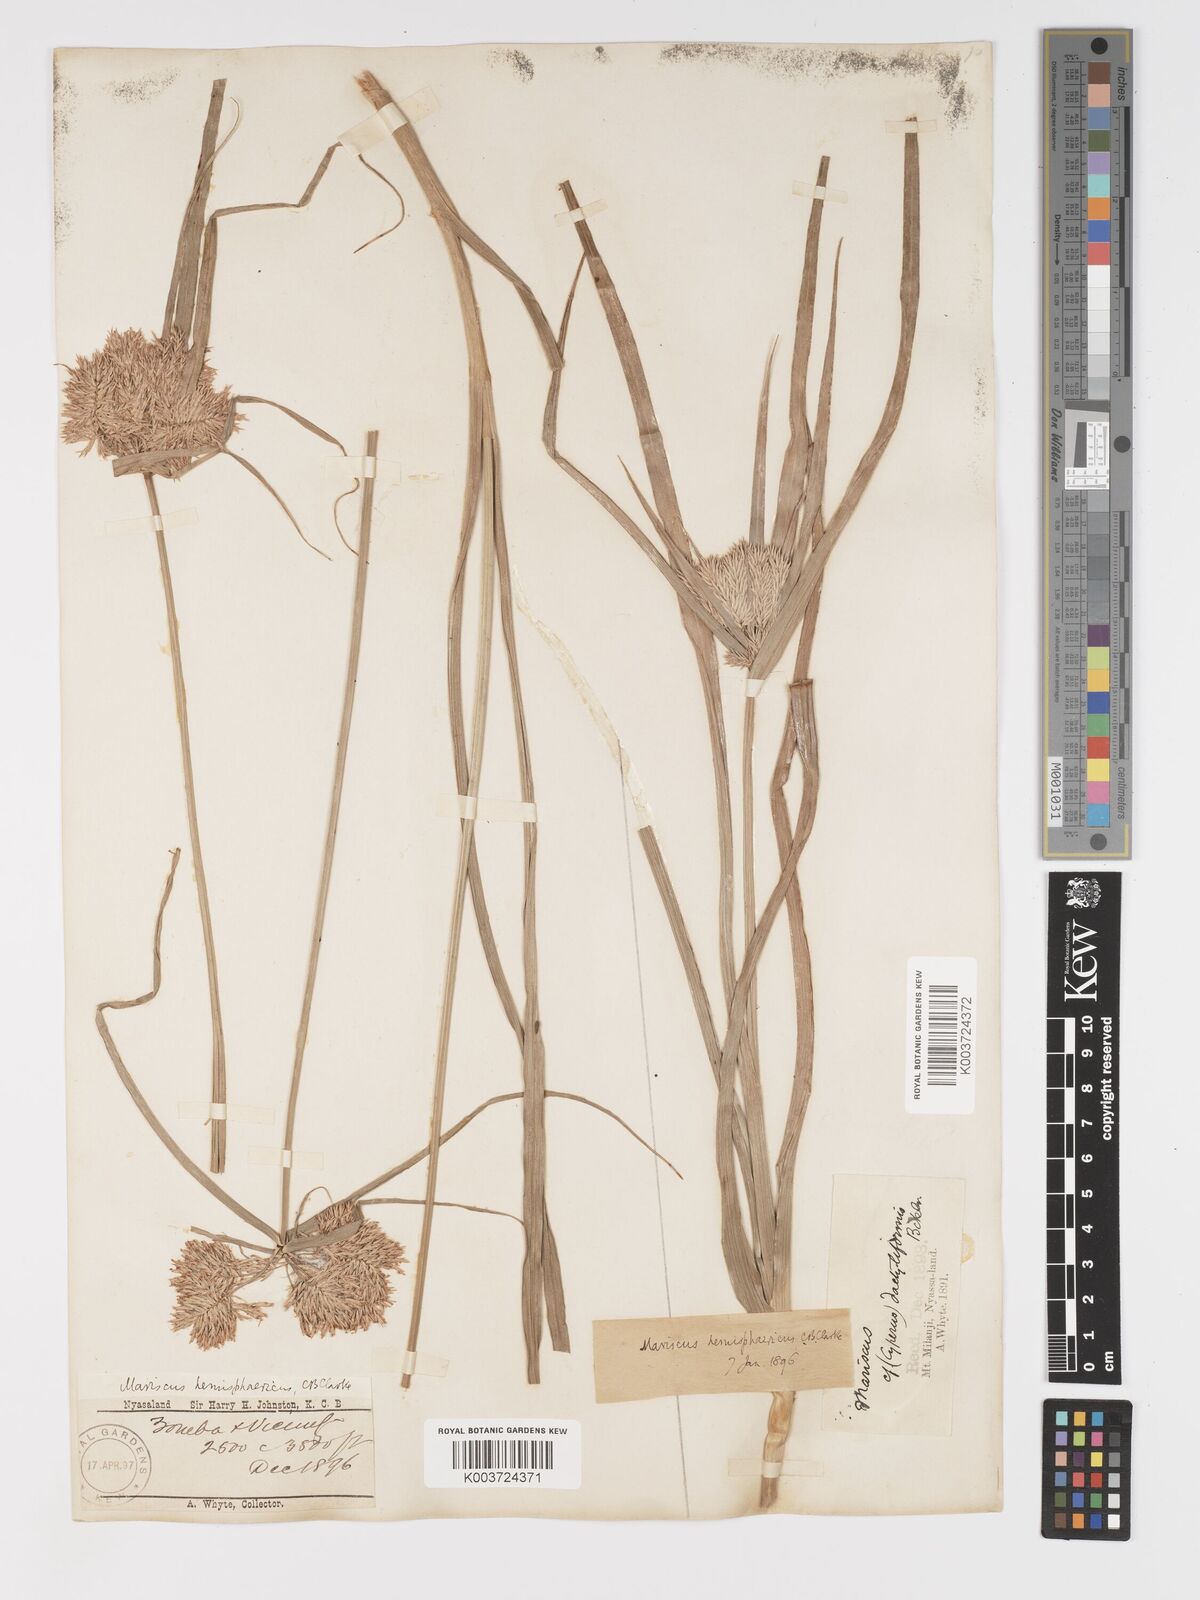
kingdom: Plantae
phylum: Tracheophyta
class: Liliopsida
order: Poales
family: Cyperaceae
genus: Cyperus
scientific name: Cyperus hemisphaericus
